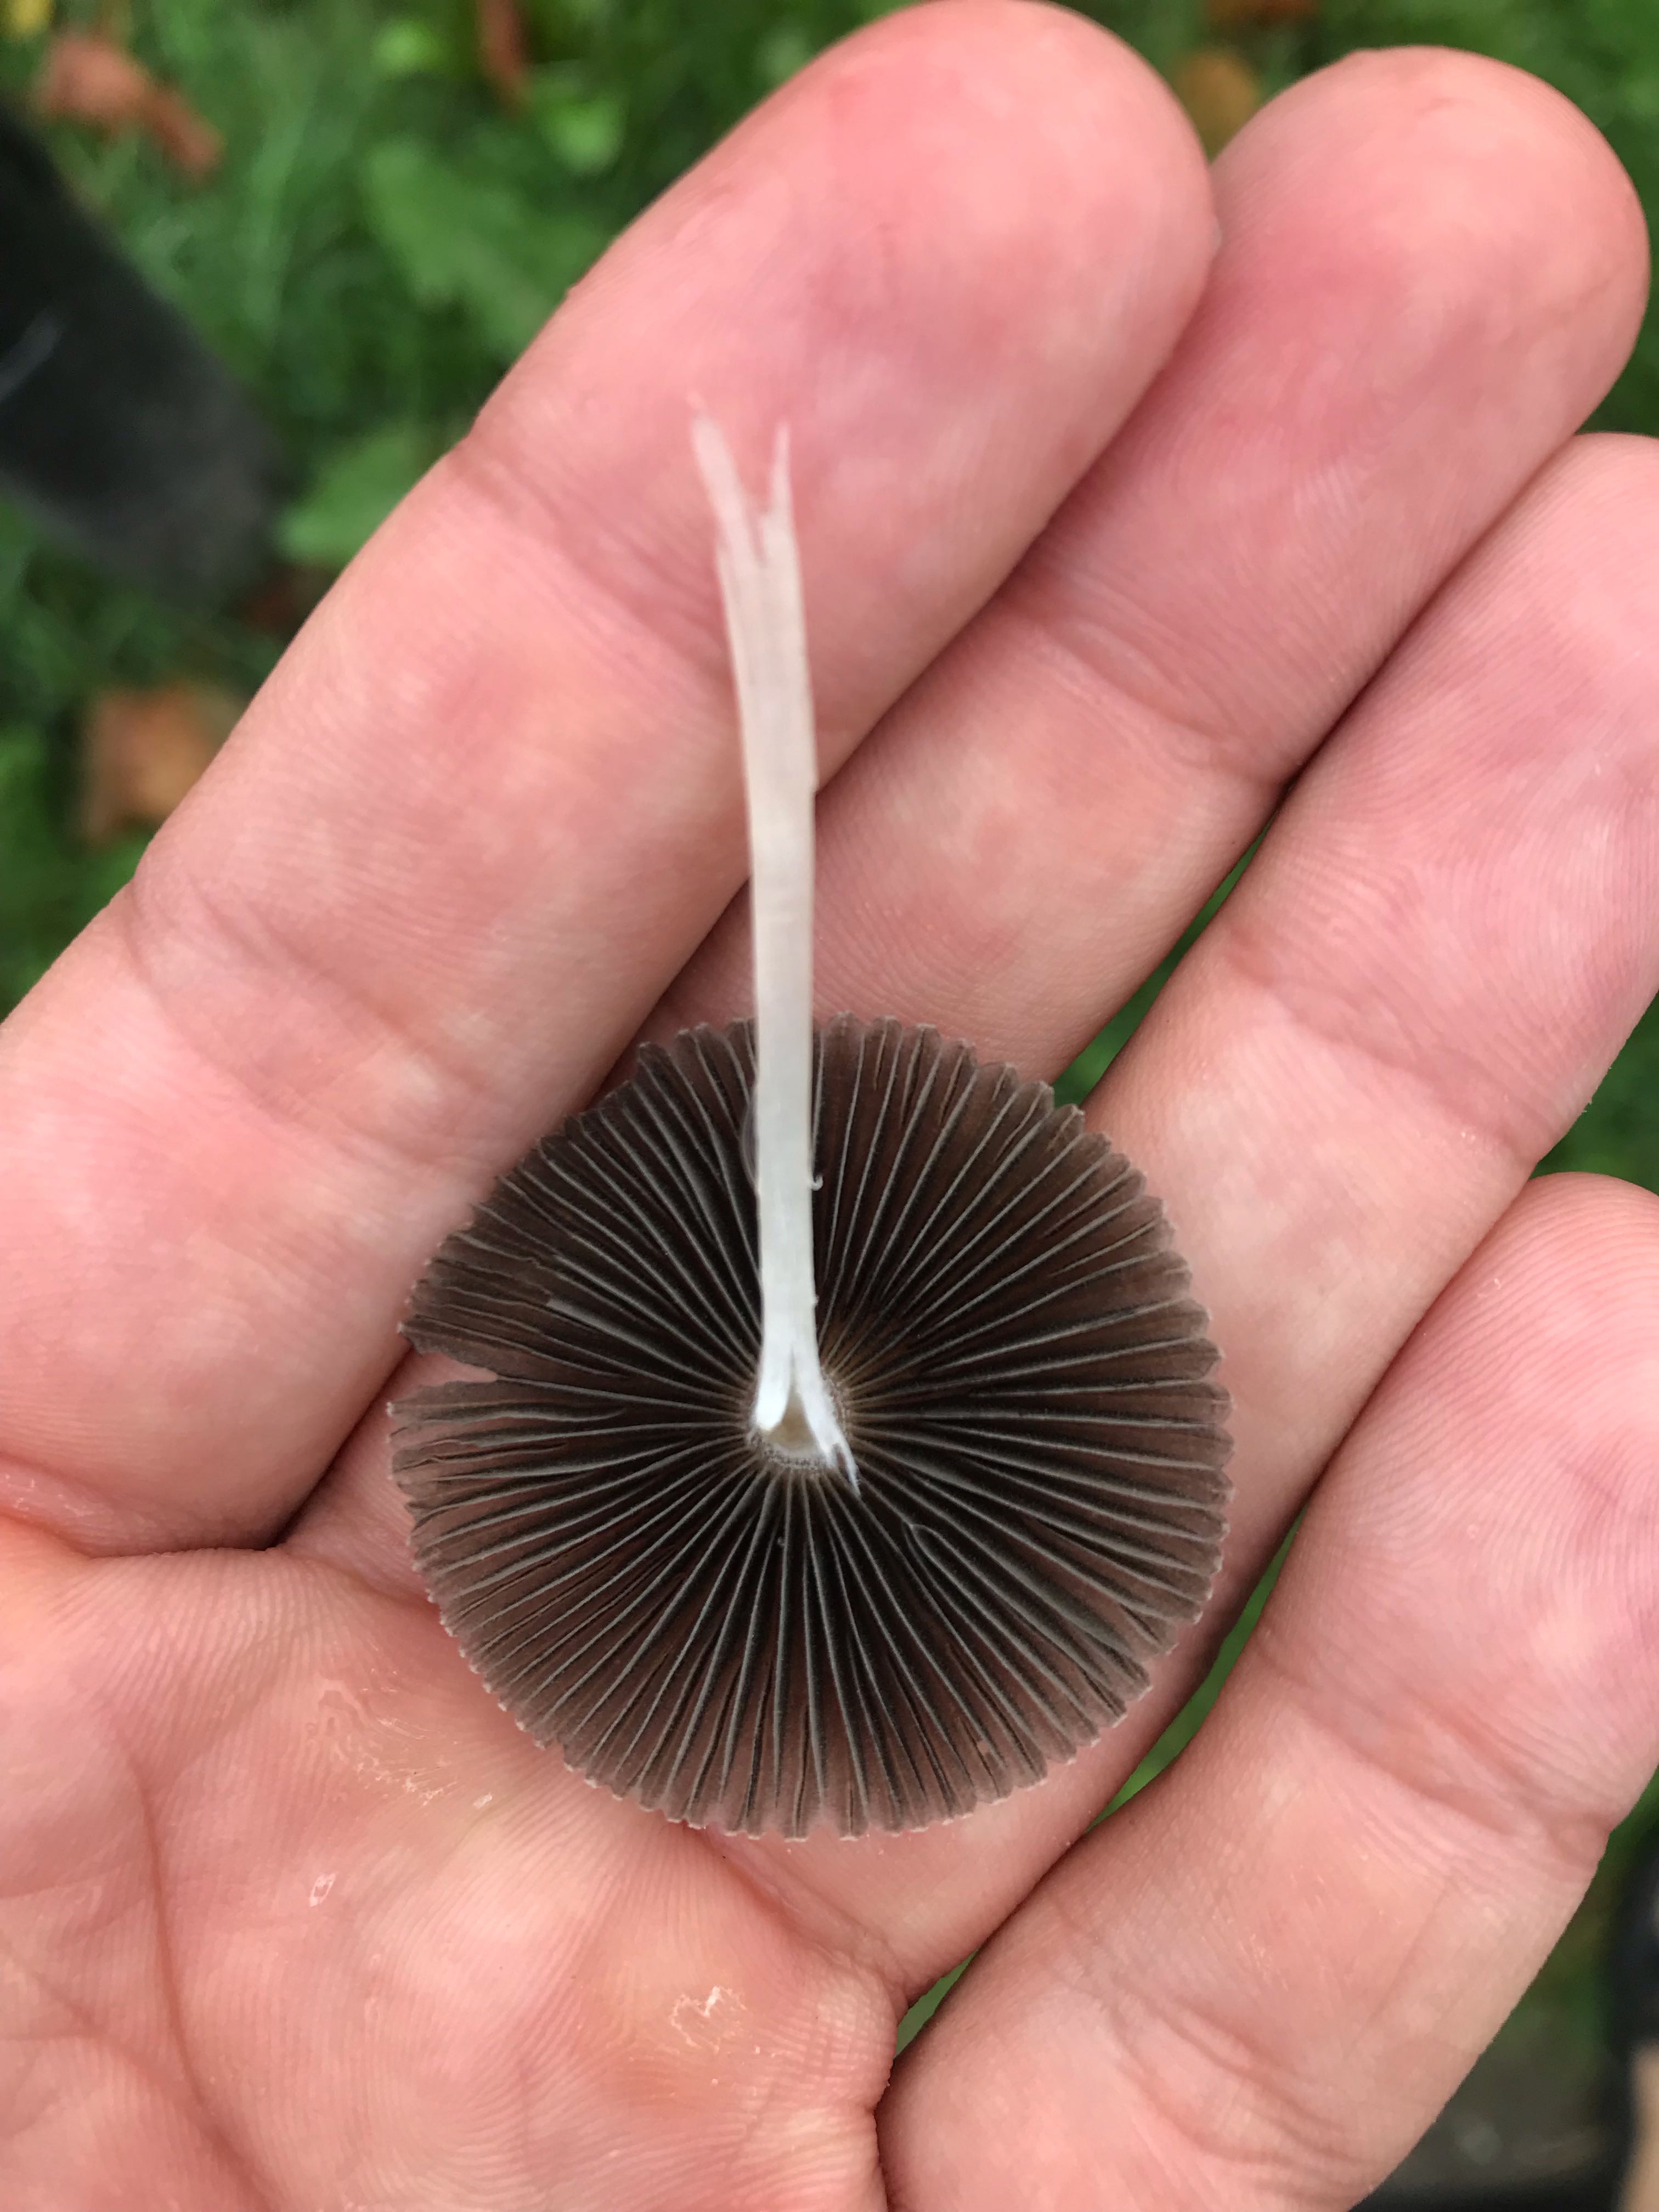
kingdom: Fungi
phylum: Basidiomycota
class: Agaricomycetes
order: Agaricales
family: Psathyrellaceae
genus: Parasola
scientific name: Parasola
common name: hjulhat
